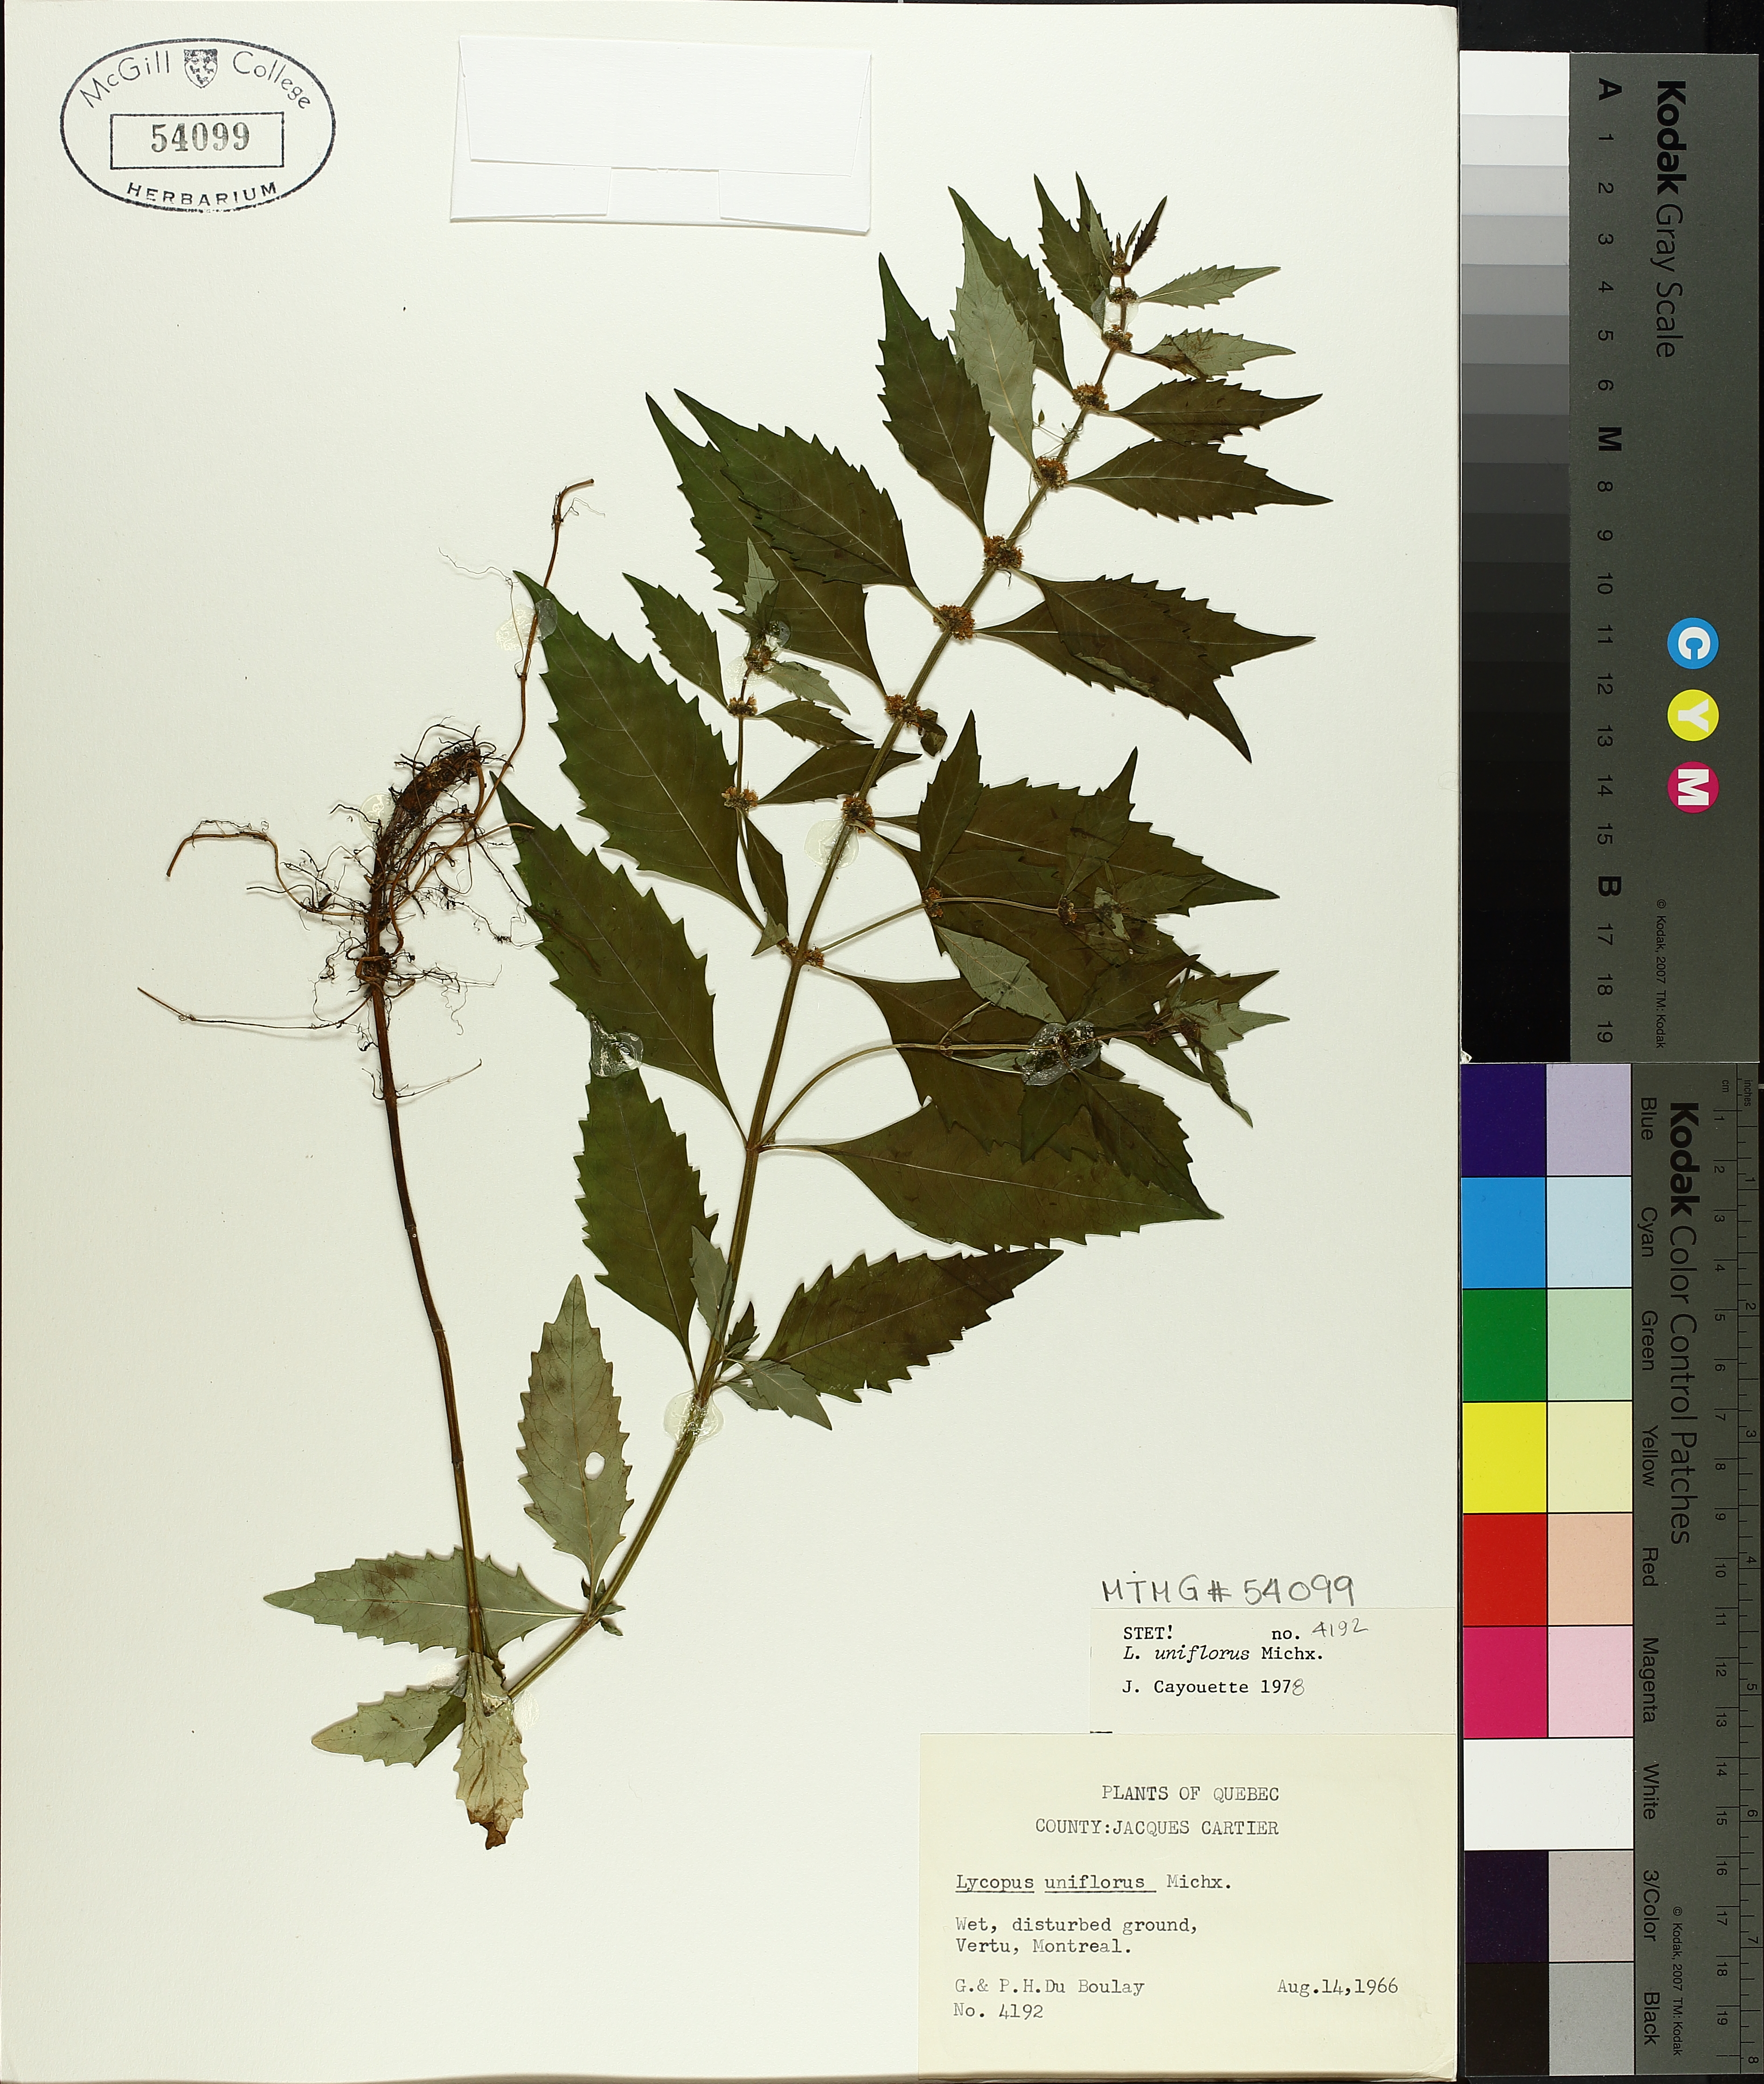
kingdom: Plantae
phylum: Tracheophyta
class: Magnoliopsida
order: Lamiales
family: Lamiaceae
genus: Lycopus
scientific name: Lycopus uniflorus
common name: Northern bugleweed
